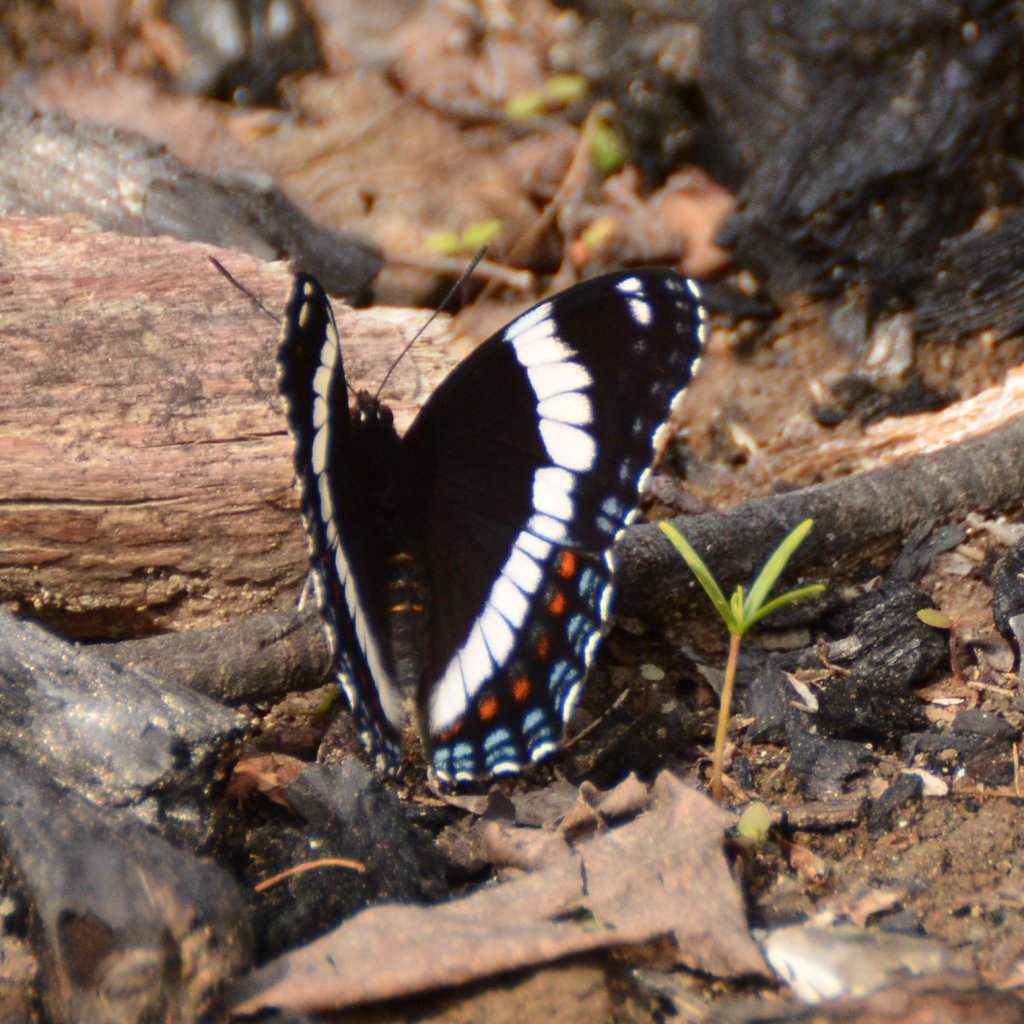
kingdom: Animalia
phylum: Arthropoda
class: Insecta
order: Lepidoptera
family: Nymphalidae
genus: Limenitis
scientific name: Limenitis arthemis
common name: Red-spotted Admiral
